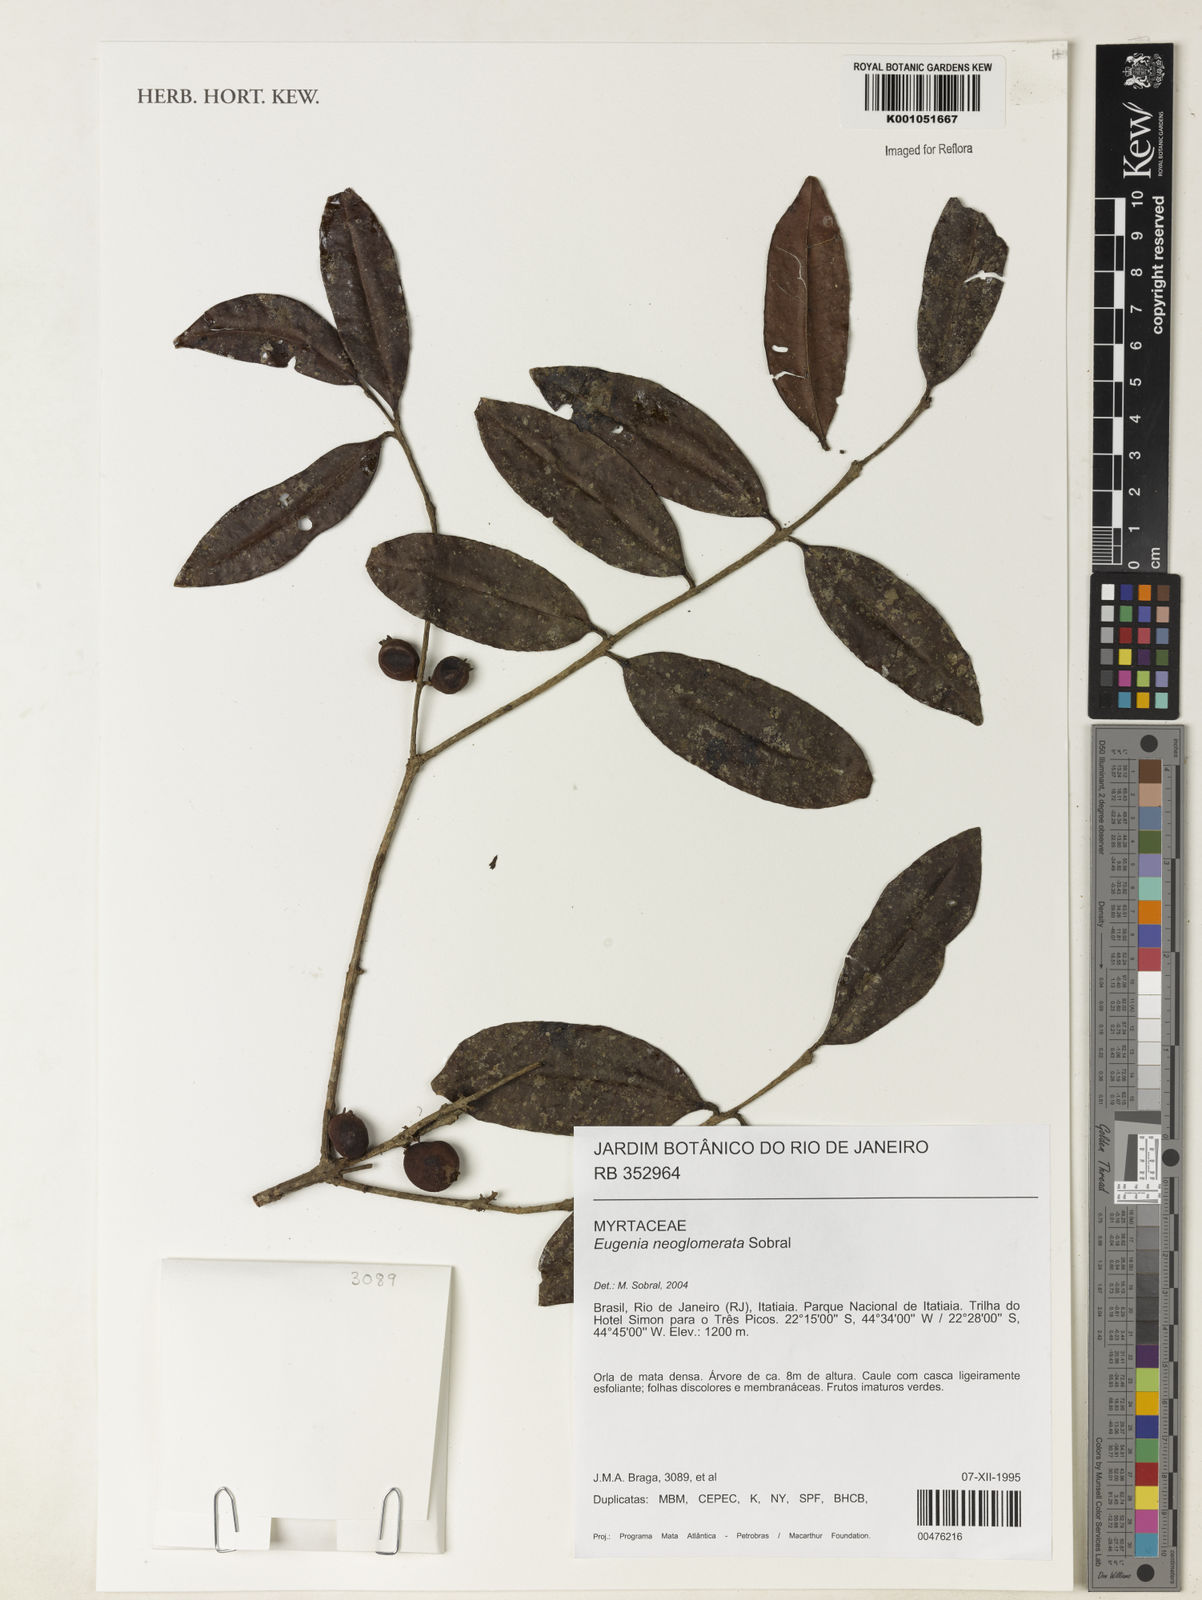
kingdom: Plantae
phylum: Tracheophyta
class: Magnoliopsida
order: Myrtales
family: Myrtaceae
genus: Eugenia
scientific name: Eugenia neoglomerata
